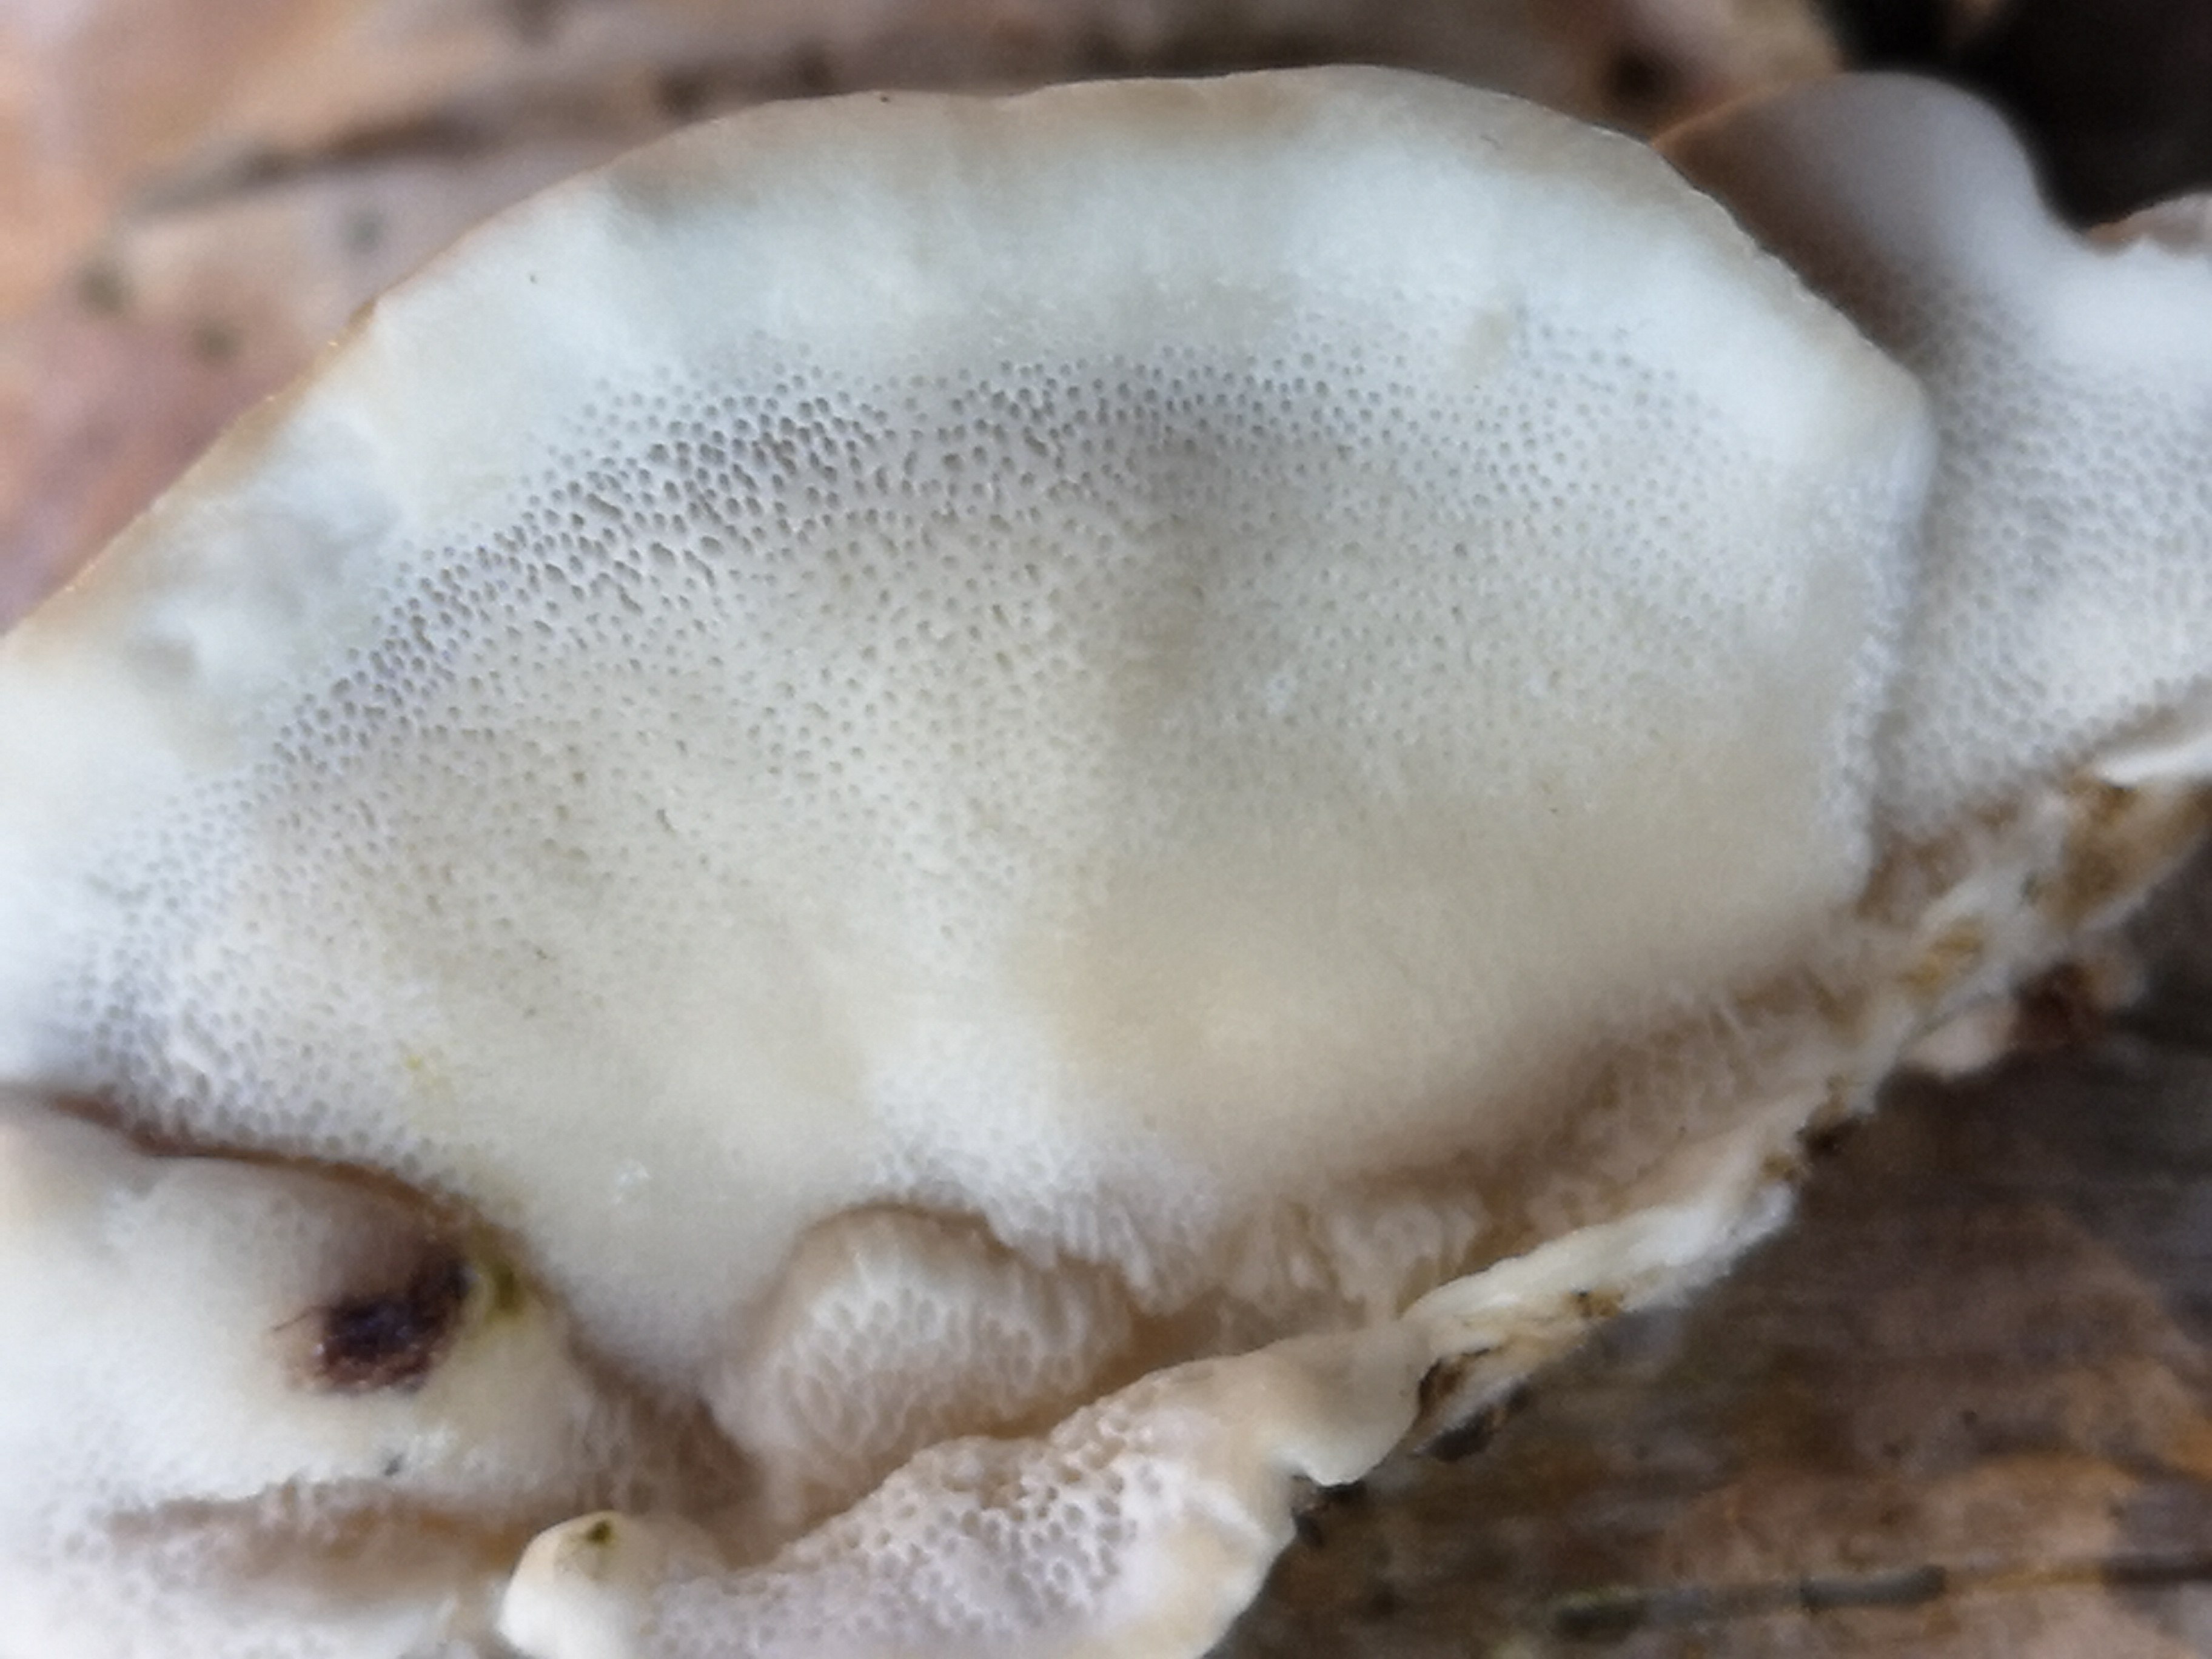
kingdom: Fungi
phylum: Basidiomycota
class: Agaricomycetes
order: Polyporales
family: Polyporaceae
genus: Trametes
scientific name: Trametes versicolor
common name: broget læderporesvamp
